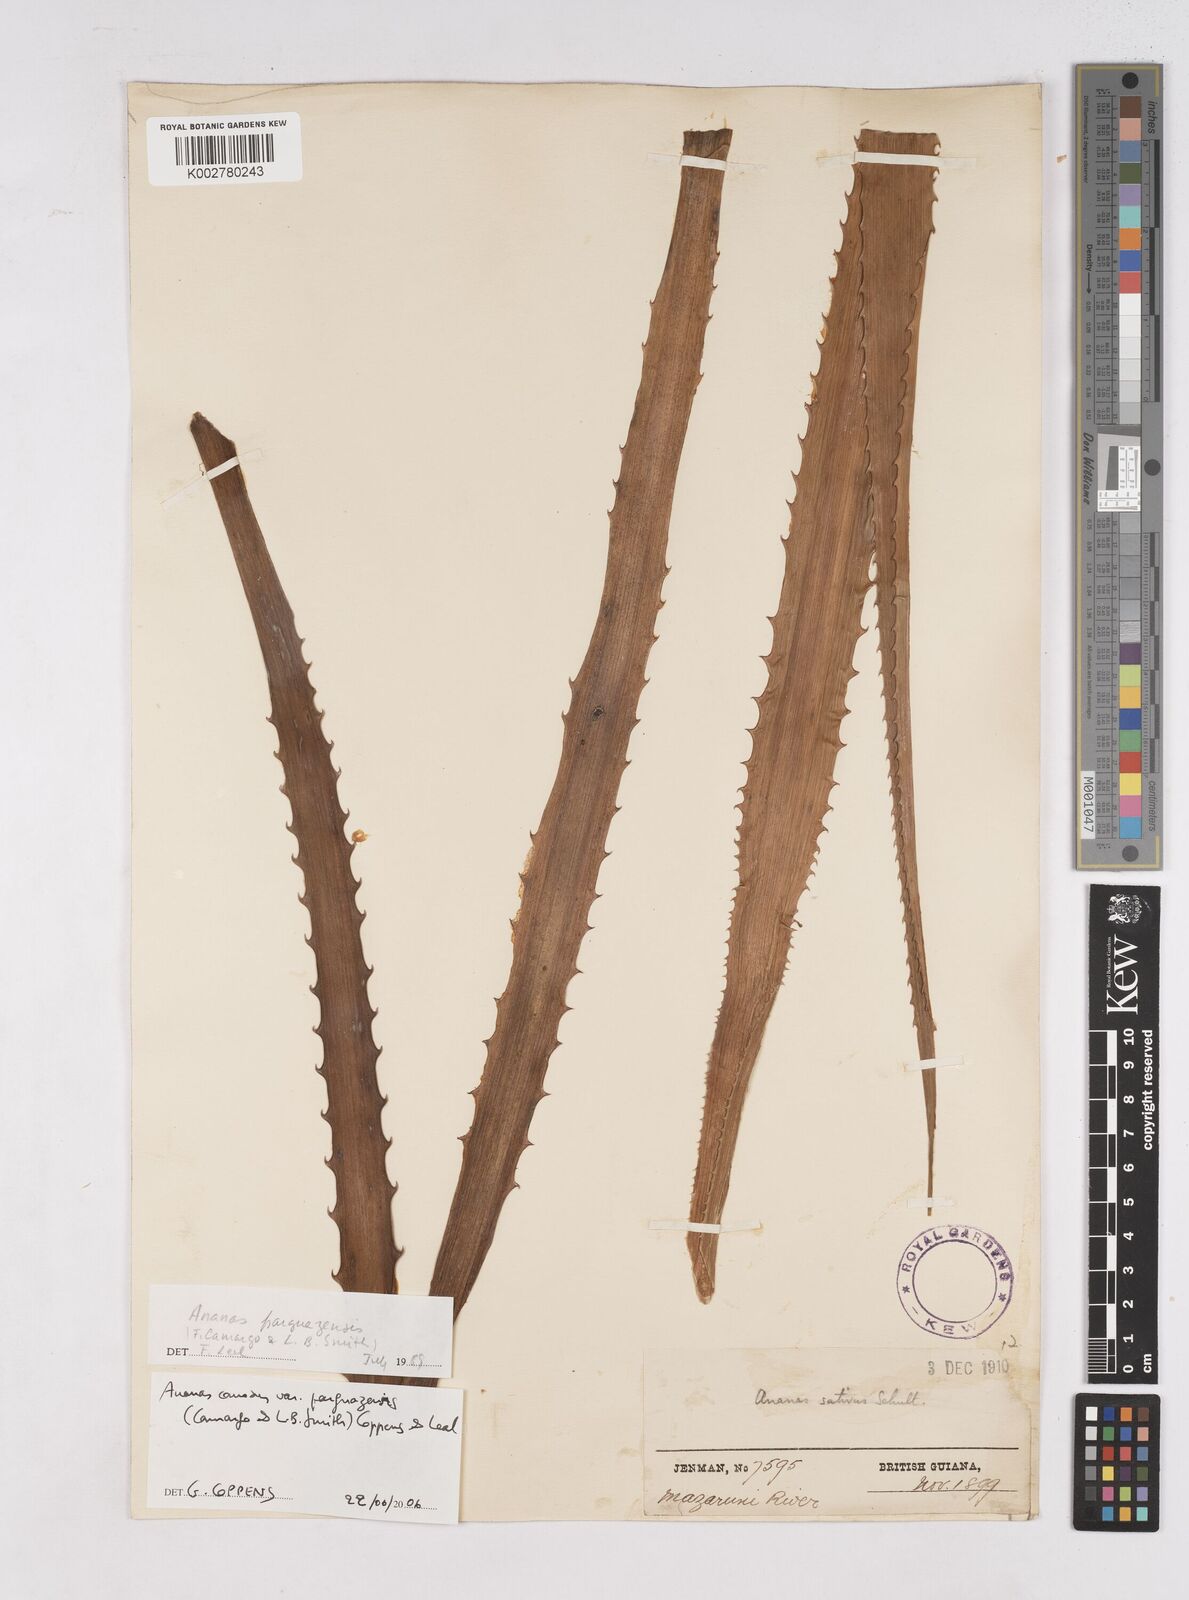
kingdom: Plantae
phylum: Tracheophyta
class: Liliopsida
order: Poales
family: Bromeliaceae
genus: Ananas
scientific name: Ananas comosus
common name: Pineapple
